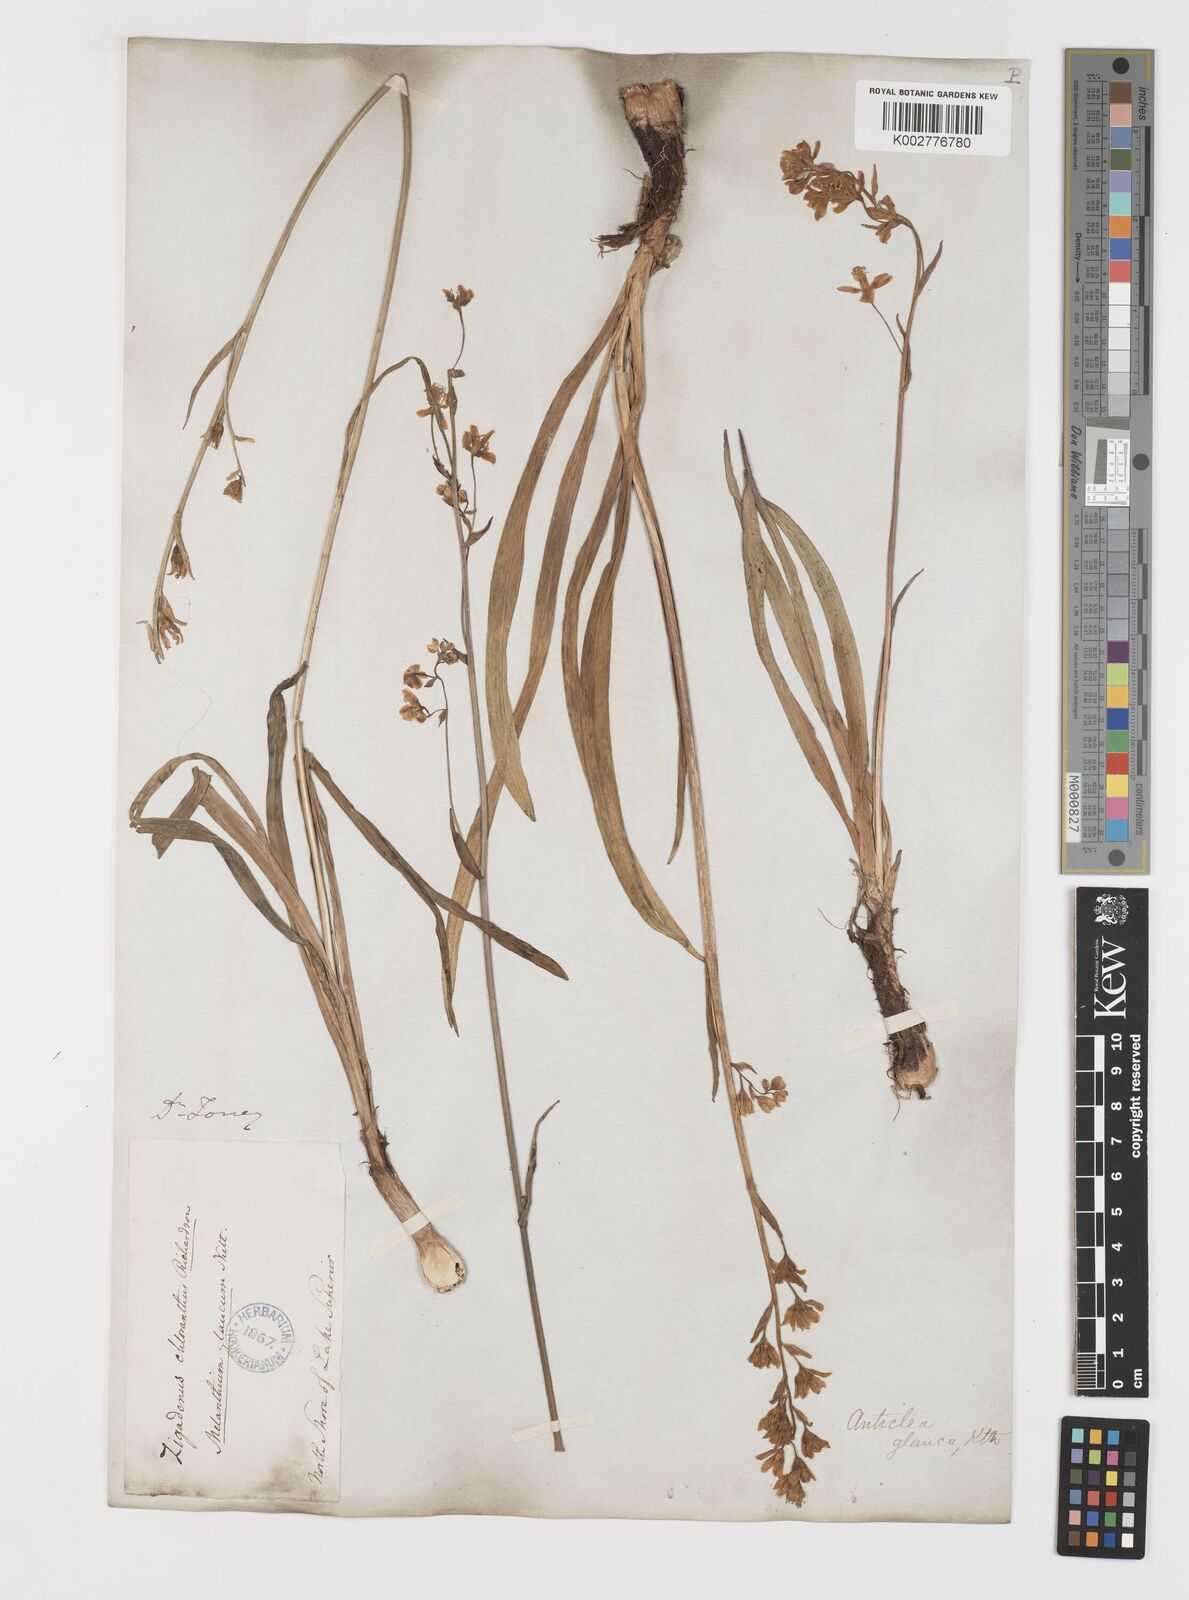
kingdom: Plantae
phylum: Tracheophyta
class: Liliopsida
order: Liliales
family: Melanthiaceae
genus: Anticlea
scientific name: Anticlea elegans
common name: Mountain death camas
